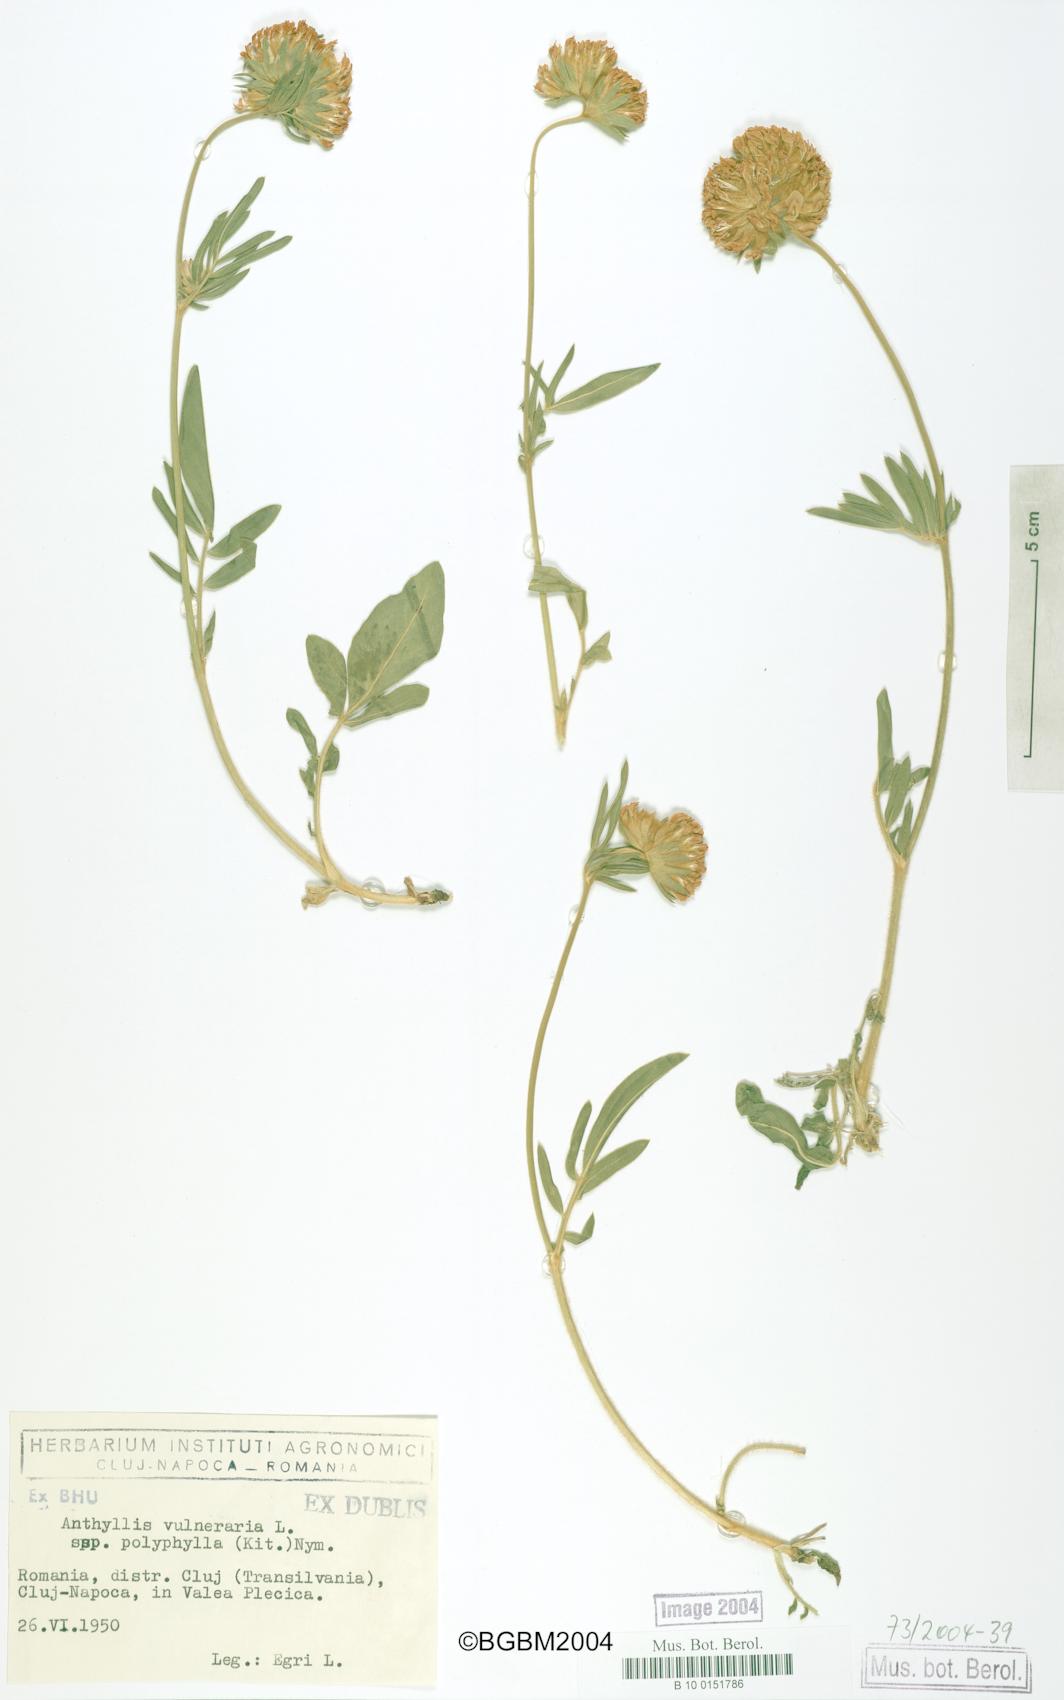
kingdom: Plantae
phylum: Tracheophyta
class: Magnoliopsida
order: Fabales
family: Fabaceae
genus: Anthyllis
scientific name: Anthyllis vulneraria
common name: Kidney vetch
